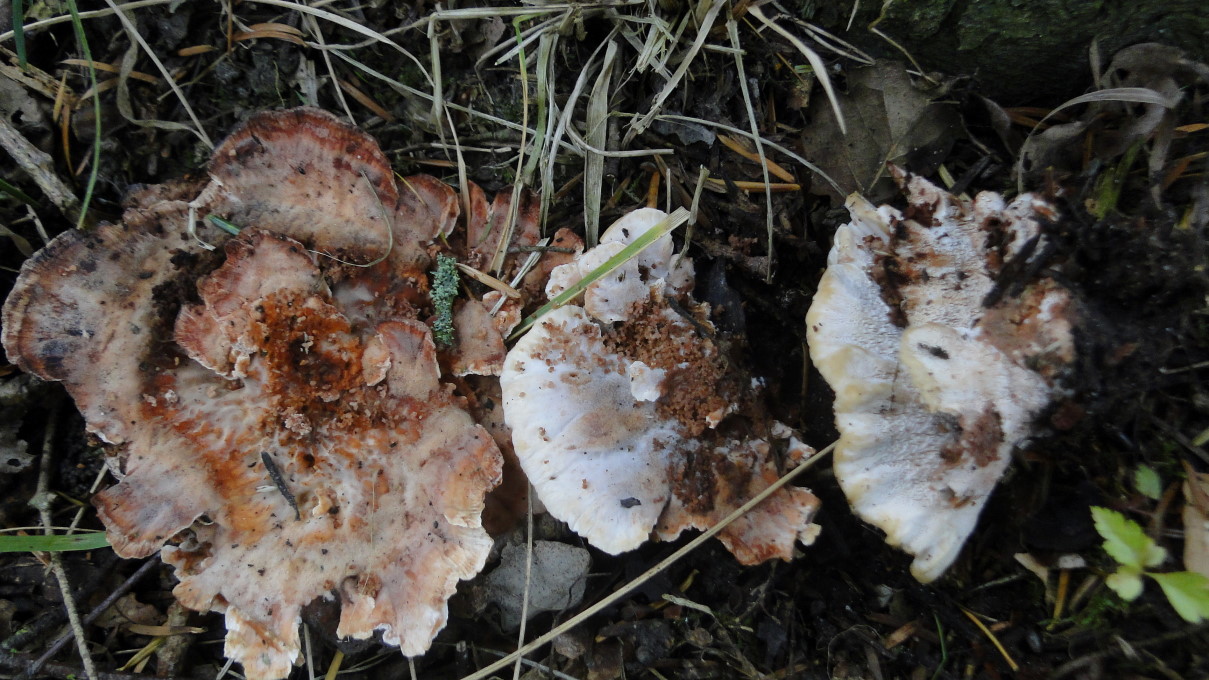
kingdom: Fungi
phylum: Basidiomycota
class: Agaricomycetes
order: Polyporales
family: Podoscyphaceae
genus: Abortiporus
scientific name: Abortiporus biennis
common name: rødmende pjalteporesvamp
